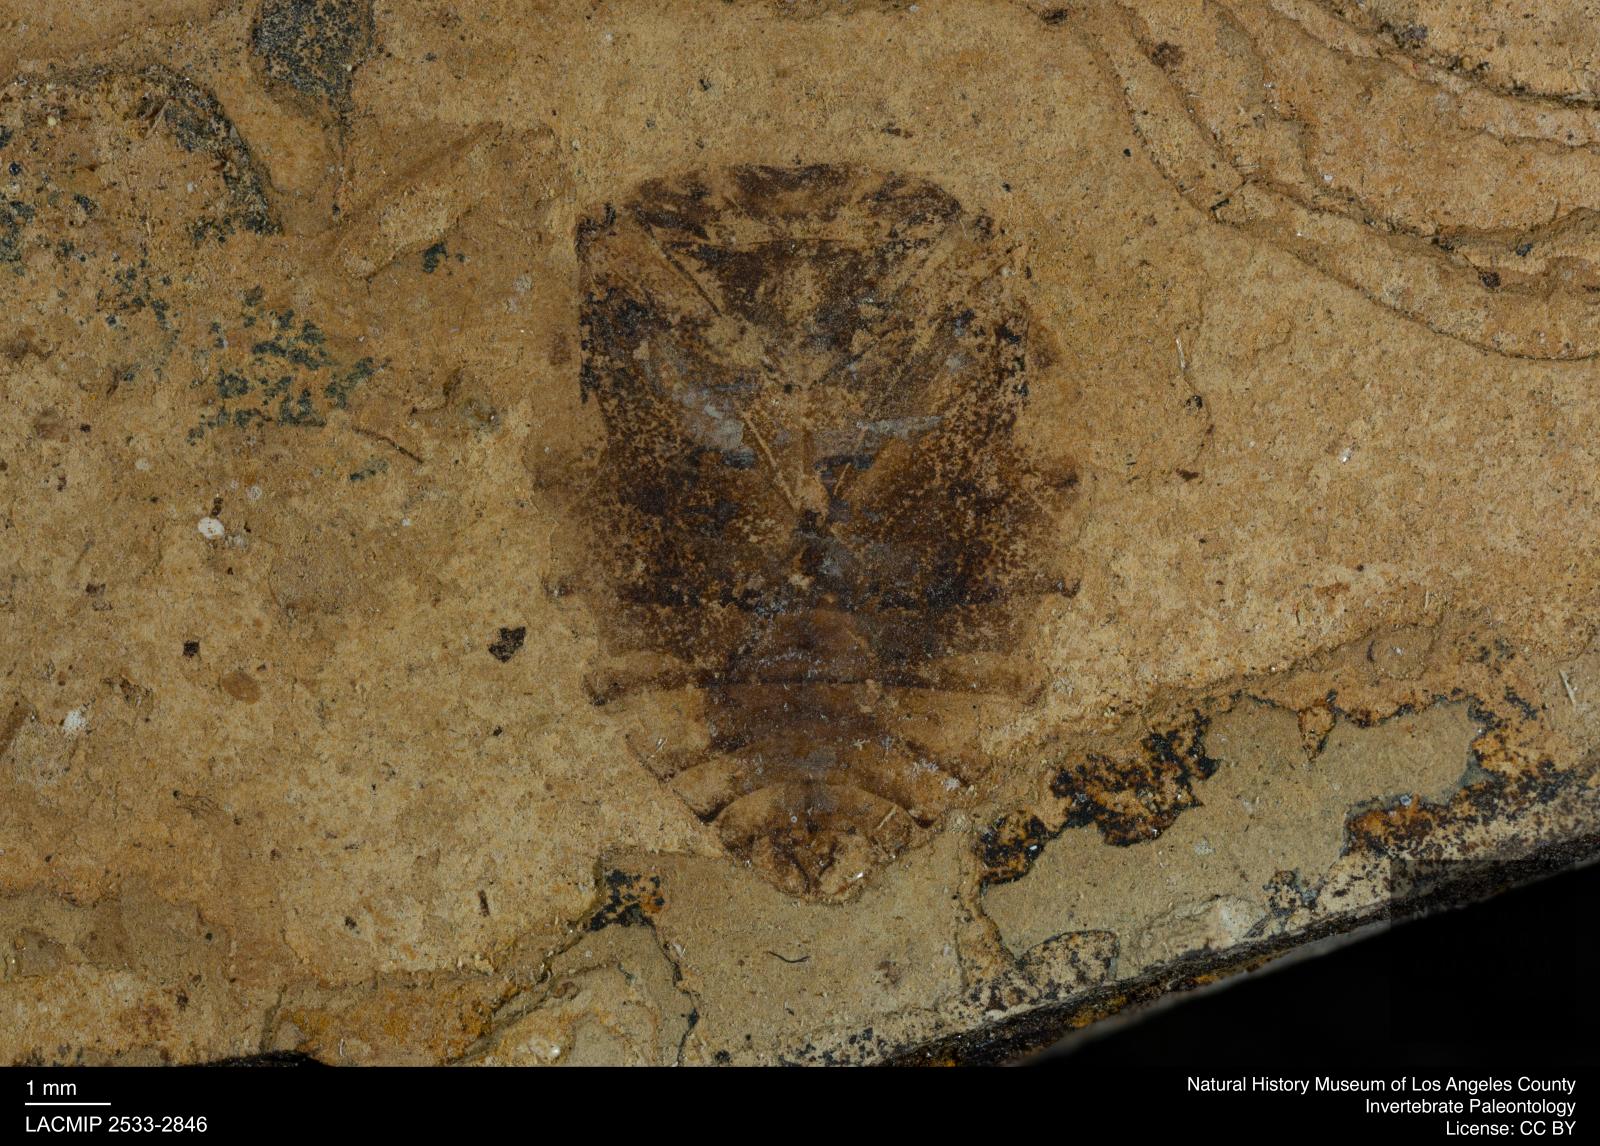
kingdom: Animalia
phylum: Arthropoda
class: Insecta
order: Hemiptera
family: Naucoridae
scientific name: Naucoridae
